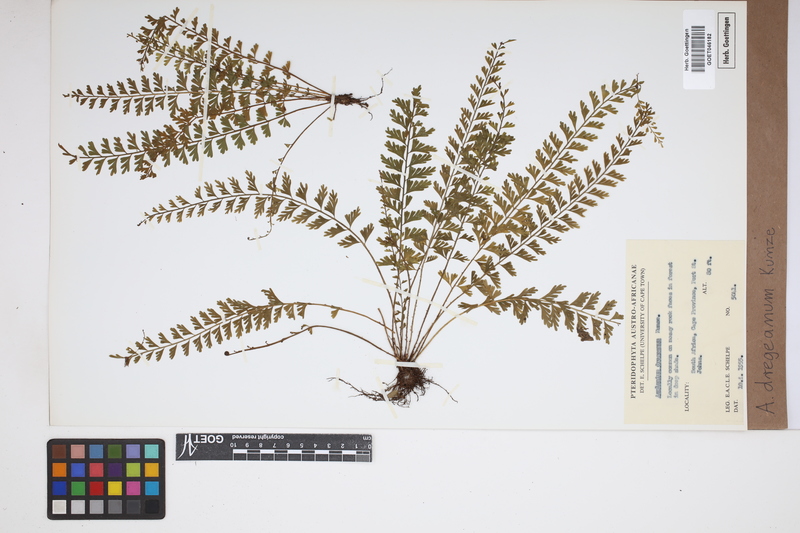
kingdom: Plantae
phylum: Tracheophyta
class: Polypodiopsida
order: Polypodiales
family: Aspleniaceae
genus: Asplenium
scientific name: Asplenium dregeanum
